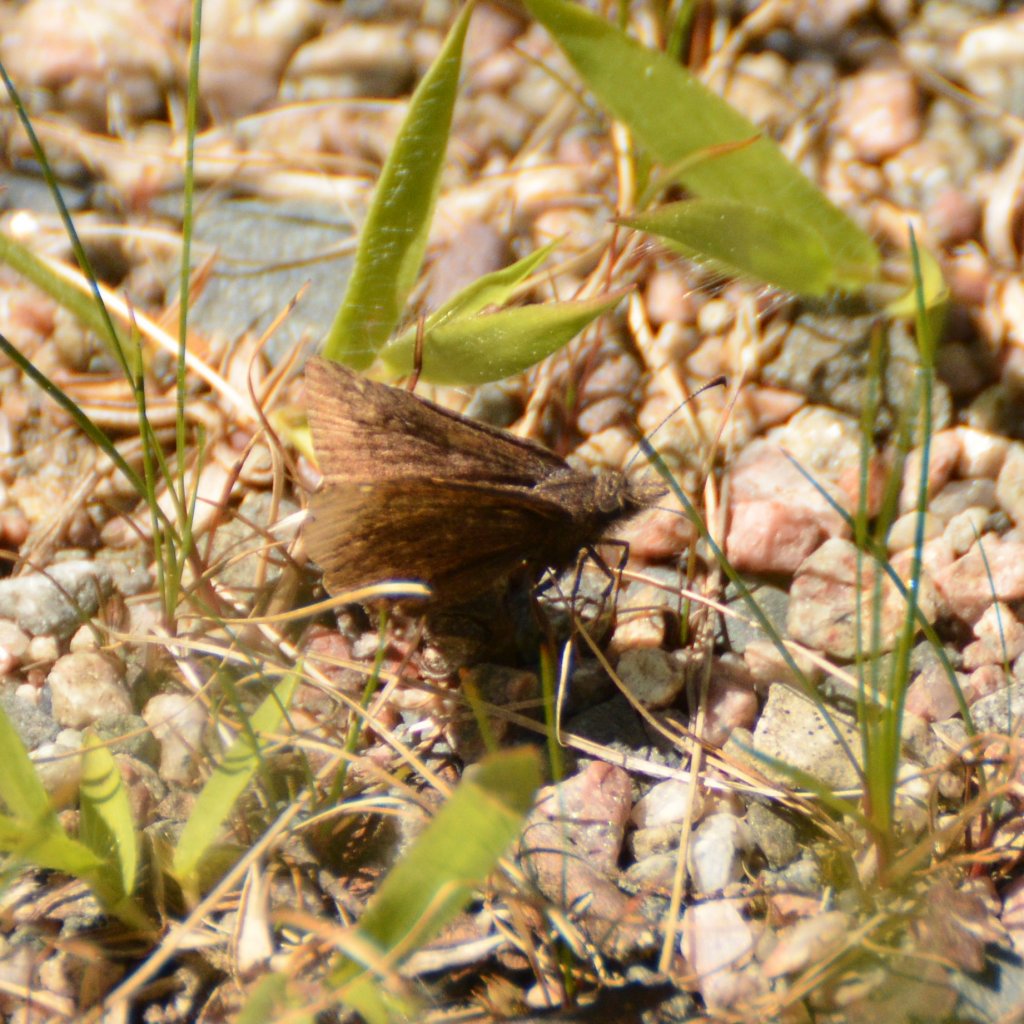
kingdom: Animalia
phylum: Arthropoda
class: Insecta
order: Lepidoptera
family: Hesperiidae
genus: Euphyes
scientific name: Euphyes vestris
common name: Dun Skipper
